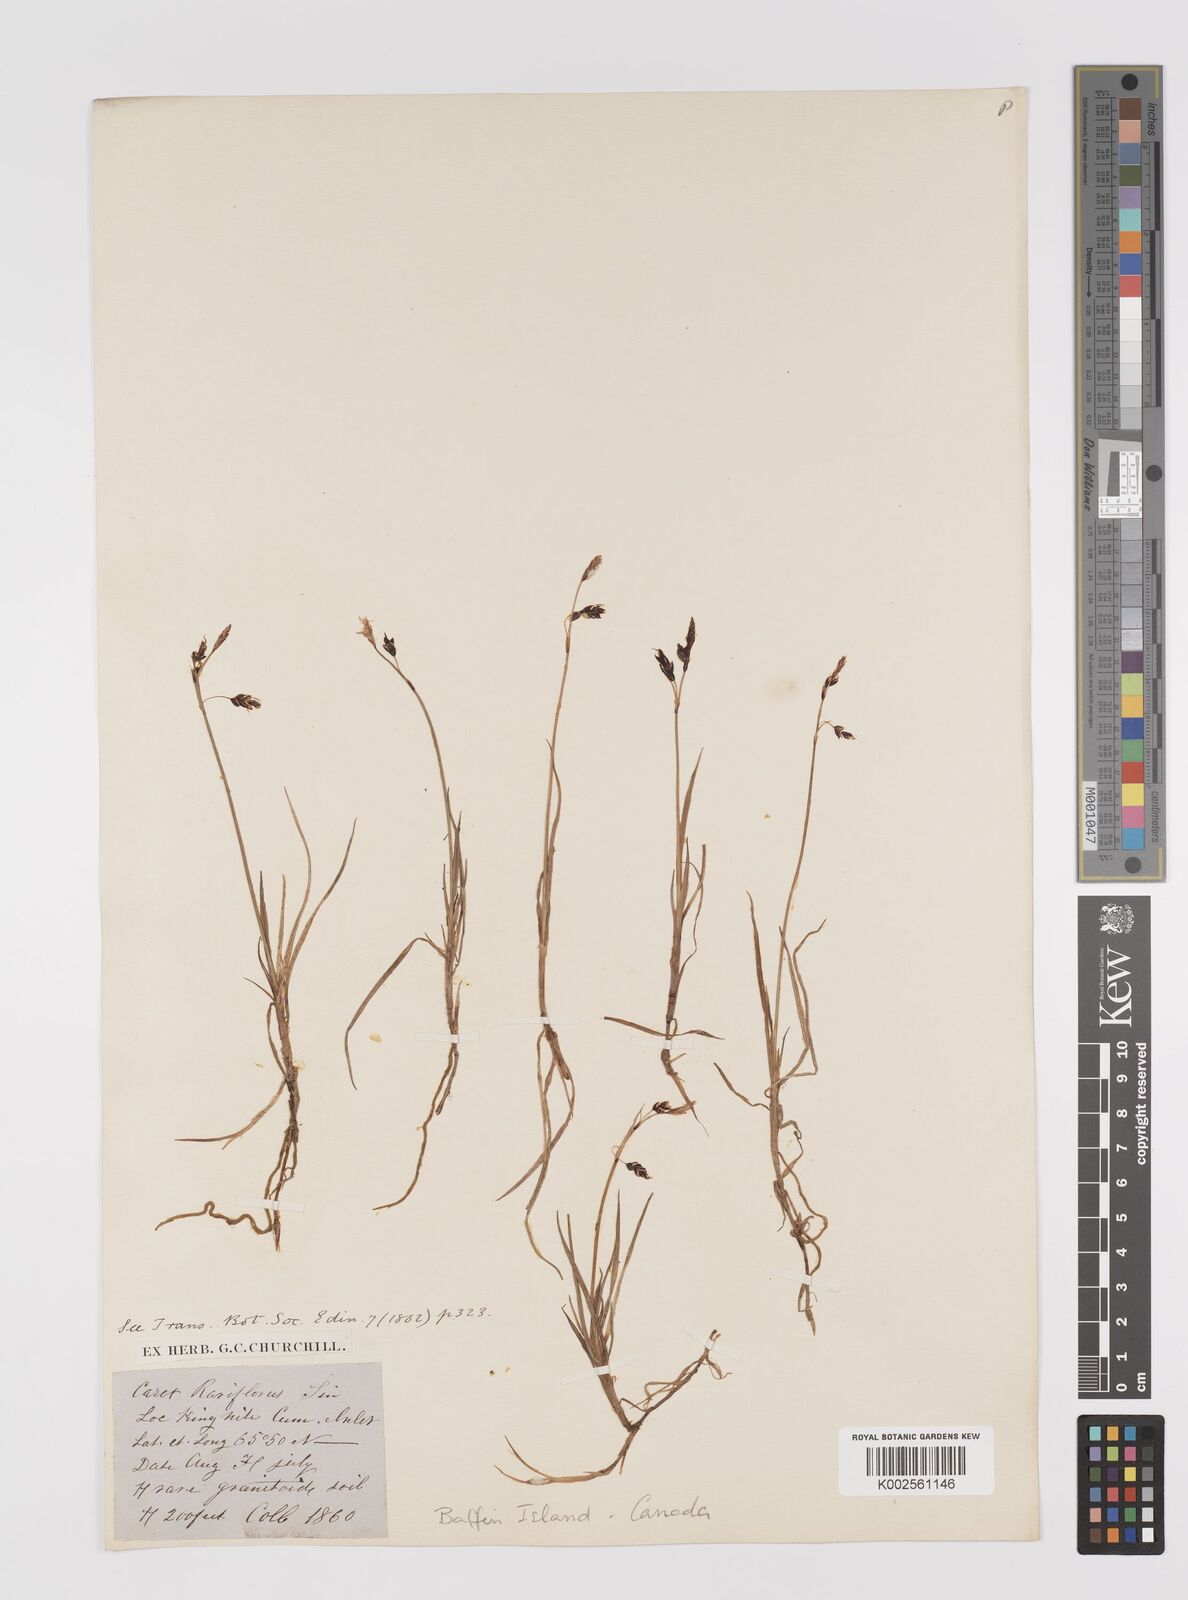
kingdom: Plantae
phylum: Tracheophyta
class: Liliopsida
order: Poales
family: Cyperaceae
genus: Carex
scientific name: Carex rariflora
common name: Loose-flowered alpine sedge
